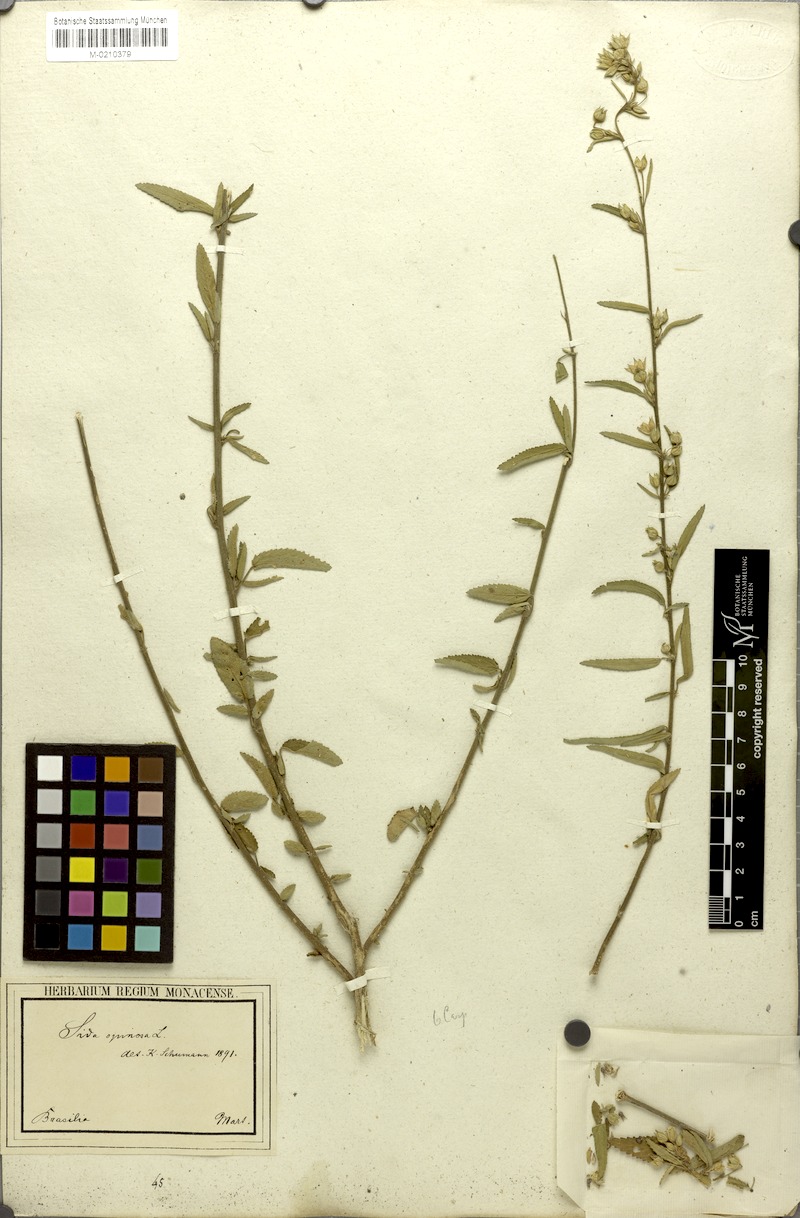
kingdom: Plantae
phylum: Tracheophyta
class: Magnoliopsida
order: Malvales
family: Malvaceae
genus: Sida
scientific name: Sida spinosa
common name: Prickly fanpetals
